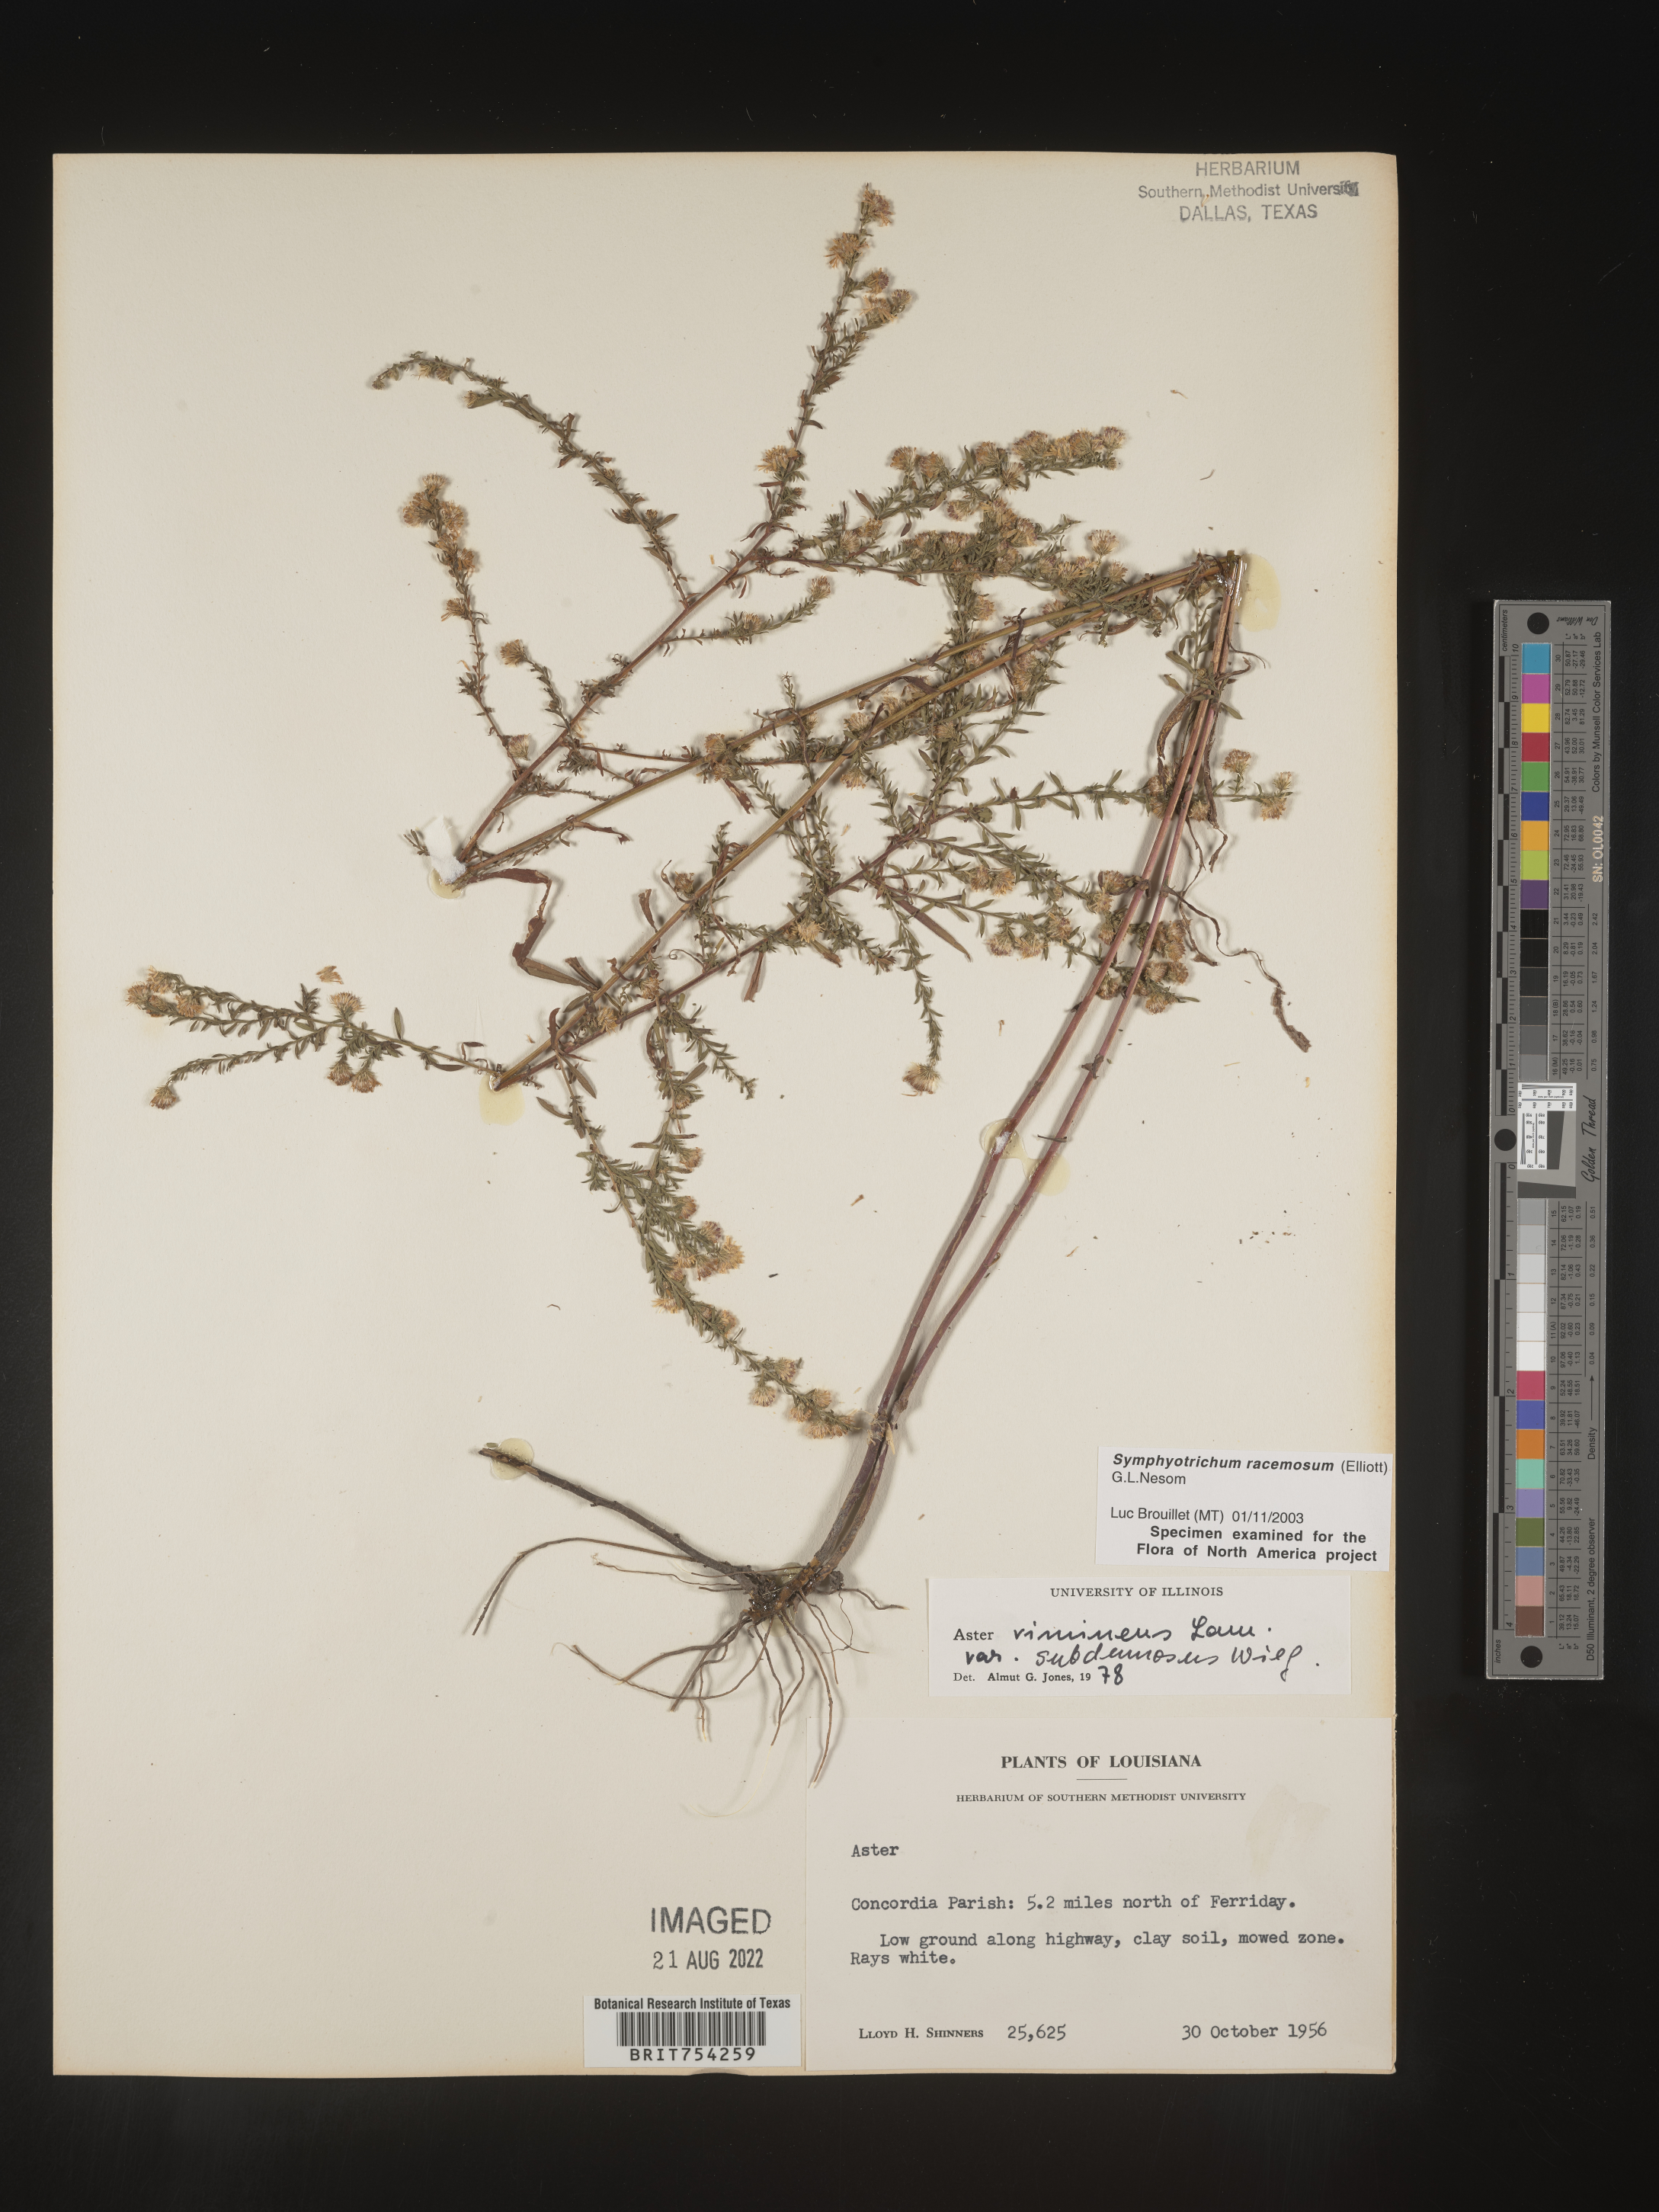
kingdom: Plantae
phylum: Tracheophyta
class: Magnoliopsida
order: Asterales
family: Asteraceae
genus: Symphyotrichum
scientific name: Symphyotrichum racemosum
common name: Small white aster
